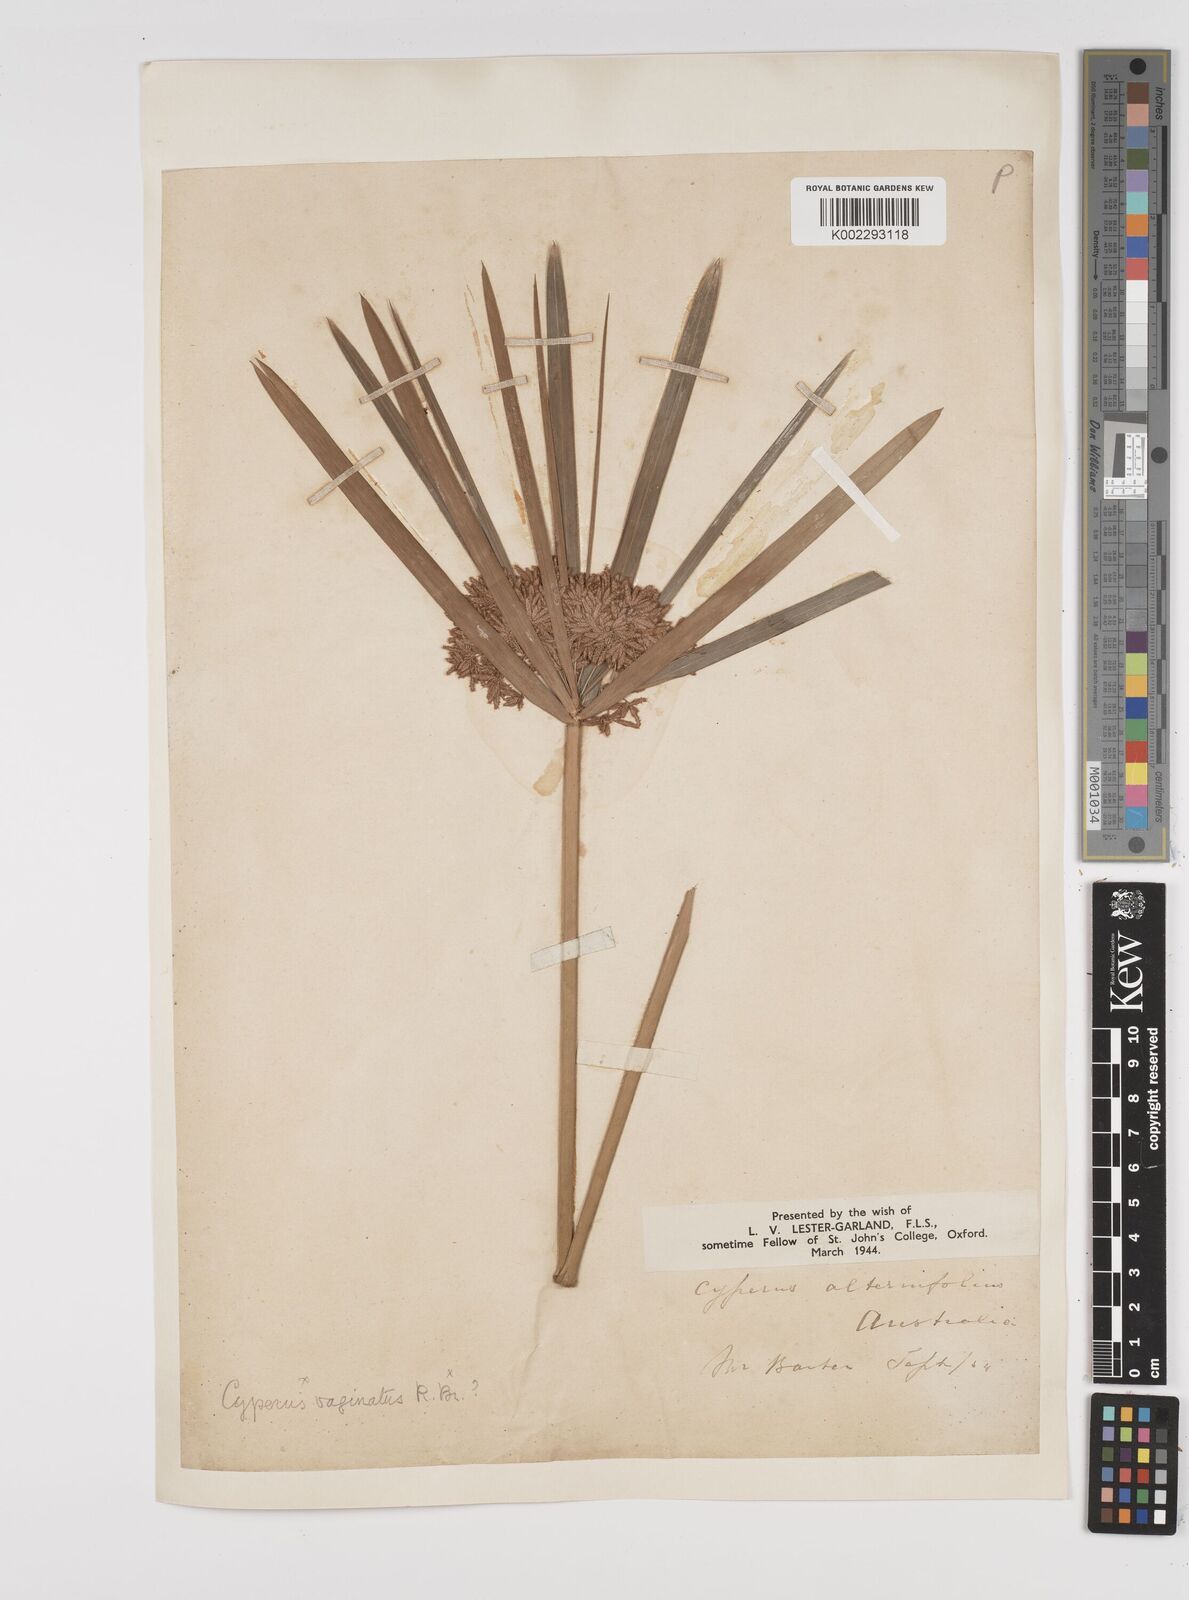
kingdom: Plantae
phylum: Tracheophyta
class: Liliopsida
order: Poales
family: Cyperaceae
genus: Cyperus
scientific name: Cyperus alternifolius
